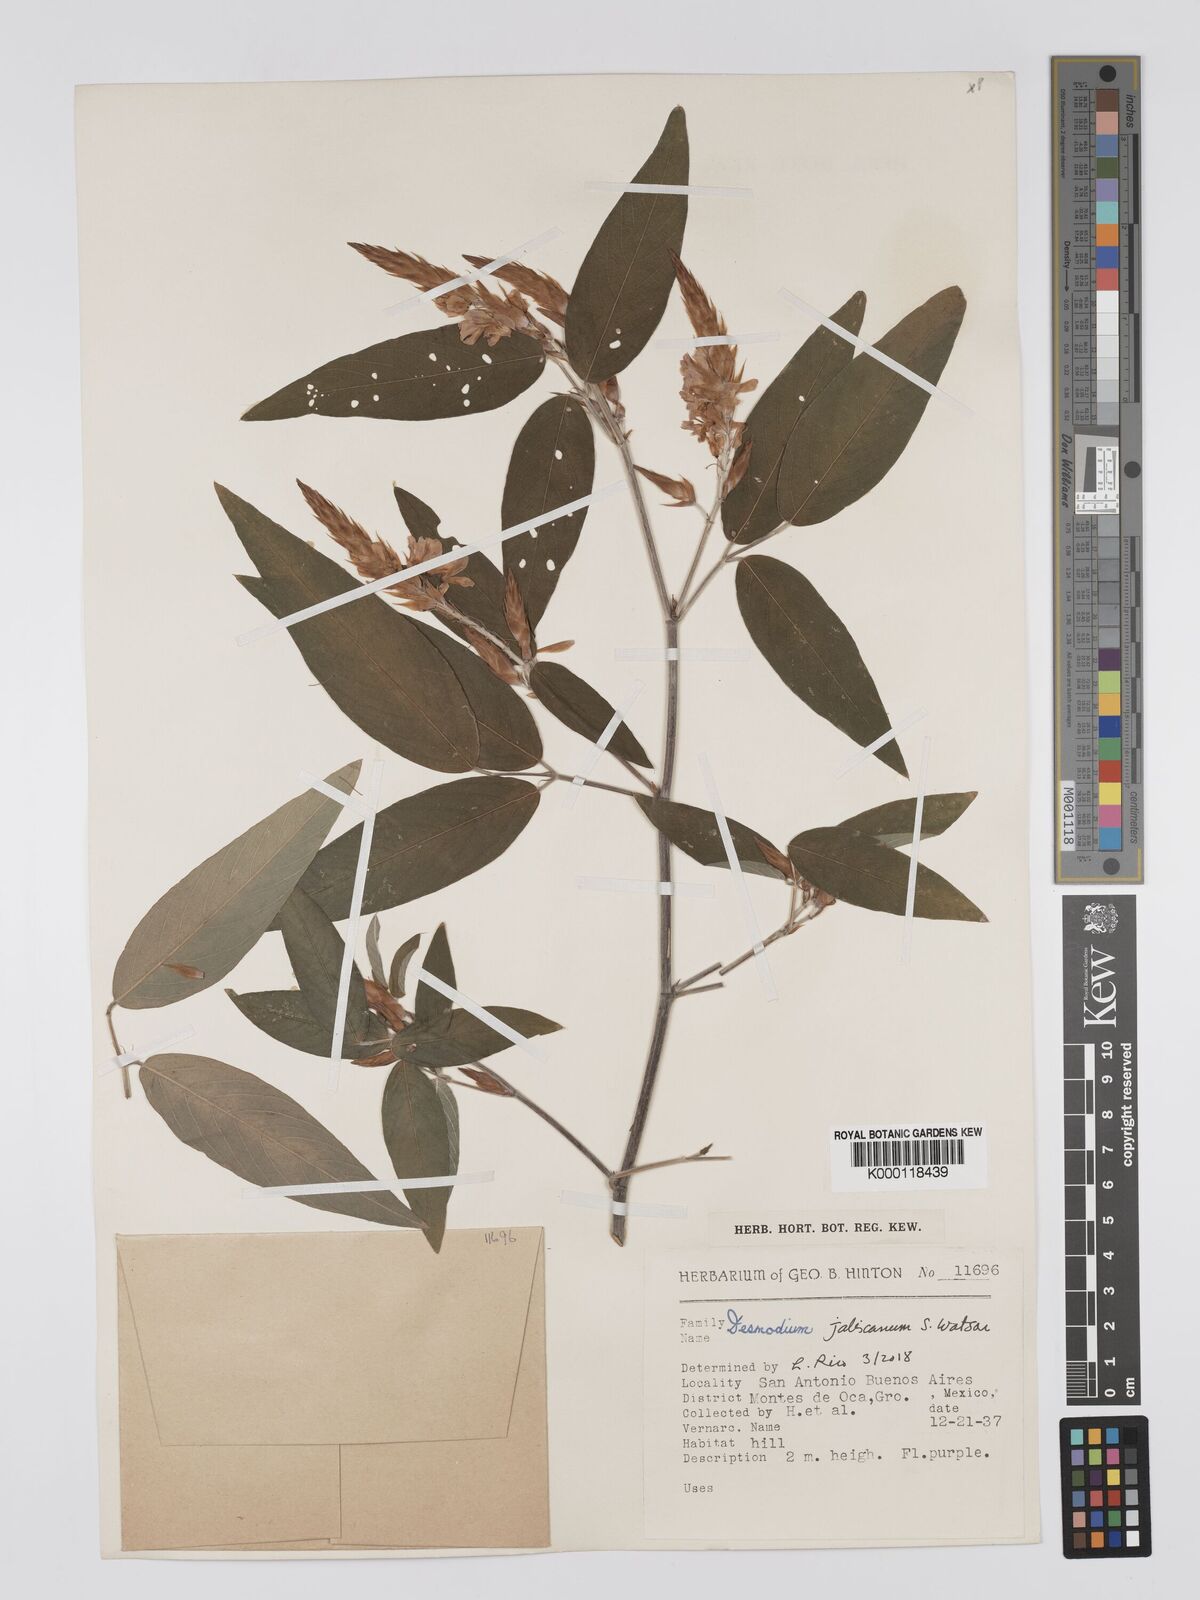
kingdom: Plantae
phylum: Tracheophyta
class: Magnoliopsida
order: Fabales
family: Fabaceae
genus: Desmodium
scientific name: Desmodium jaliscanum
